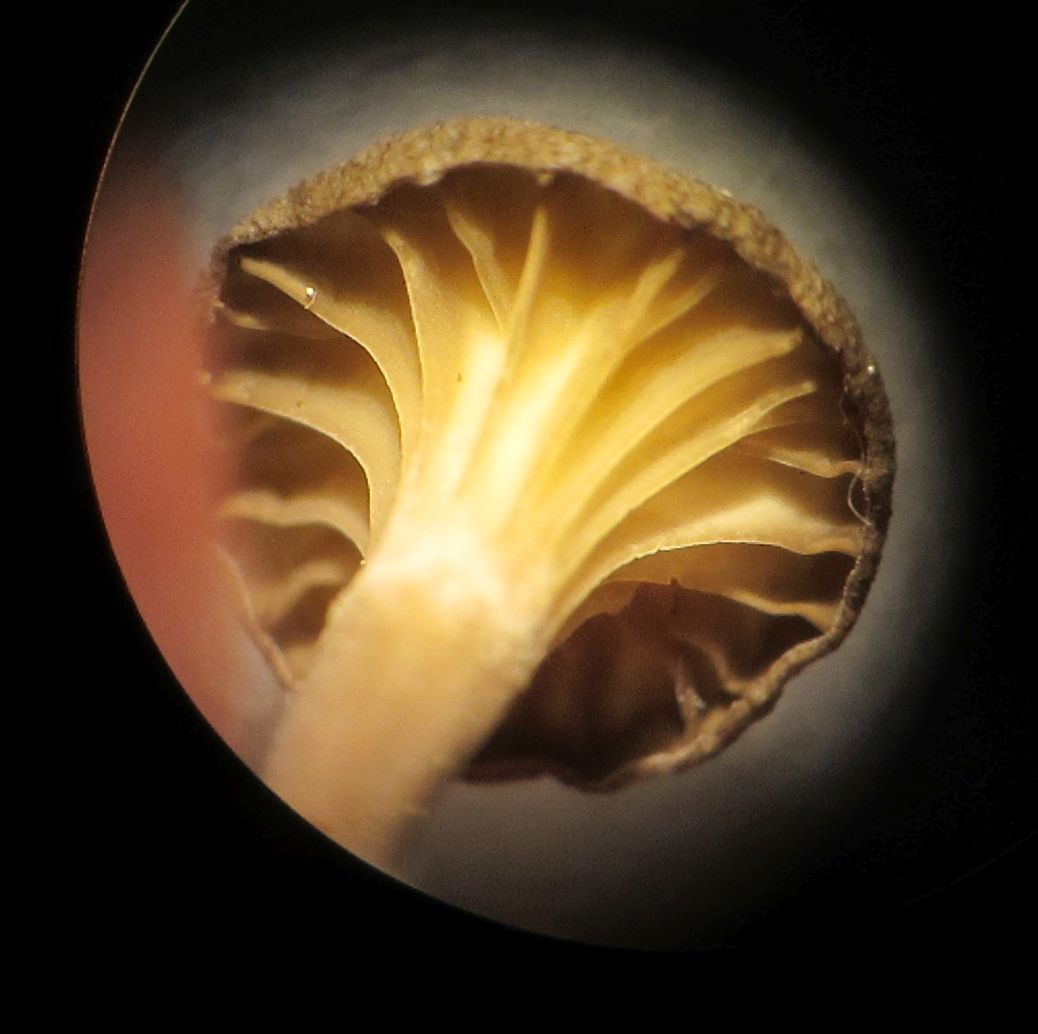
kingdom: Fungi
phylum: Basidiomycota
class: Agaricomycetes
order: Agaricales
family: Hygrophoraceae
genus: Arrhenia
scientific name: Arrhenia rickenii
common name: krusbladet fontænehat
